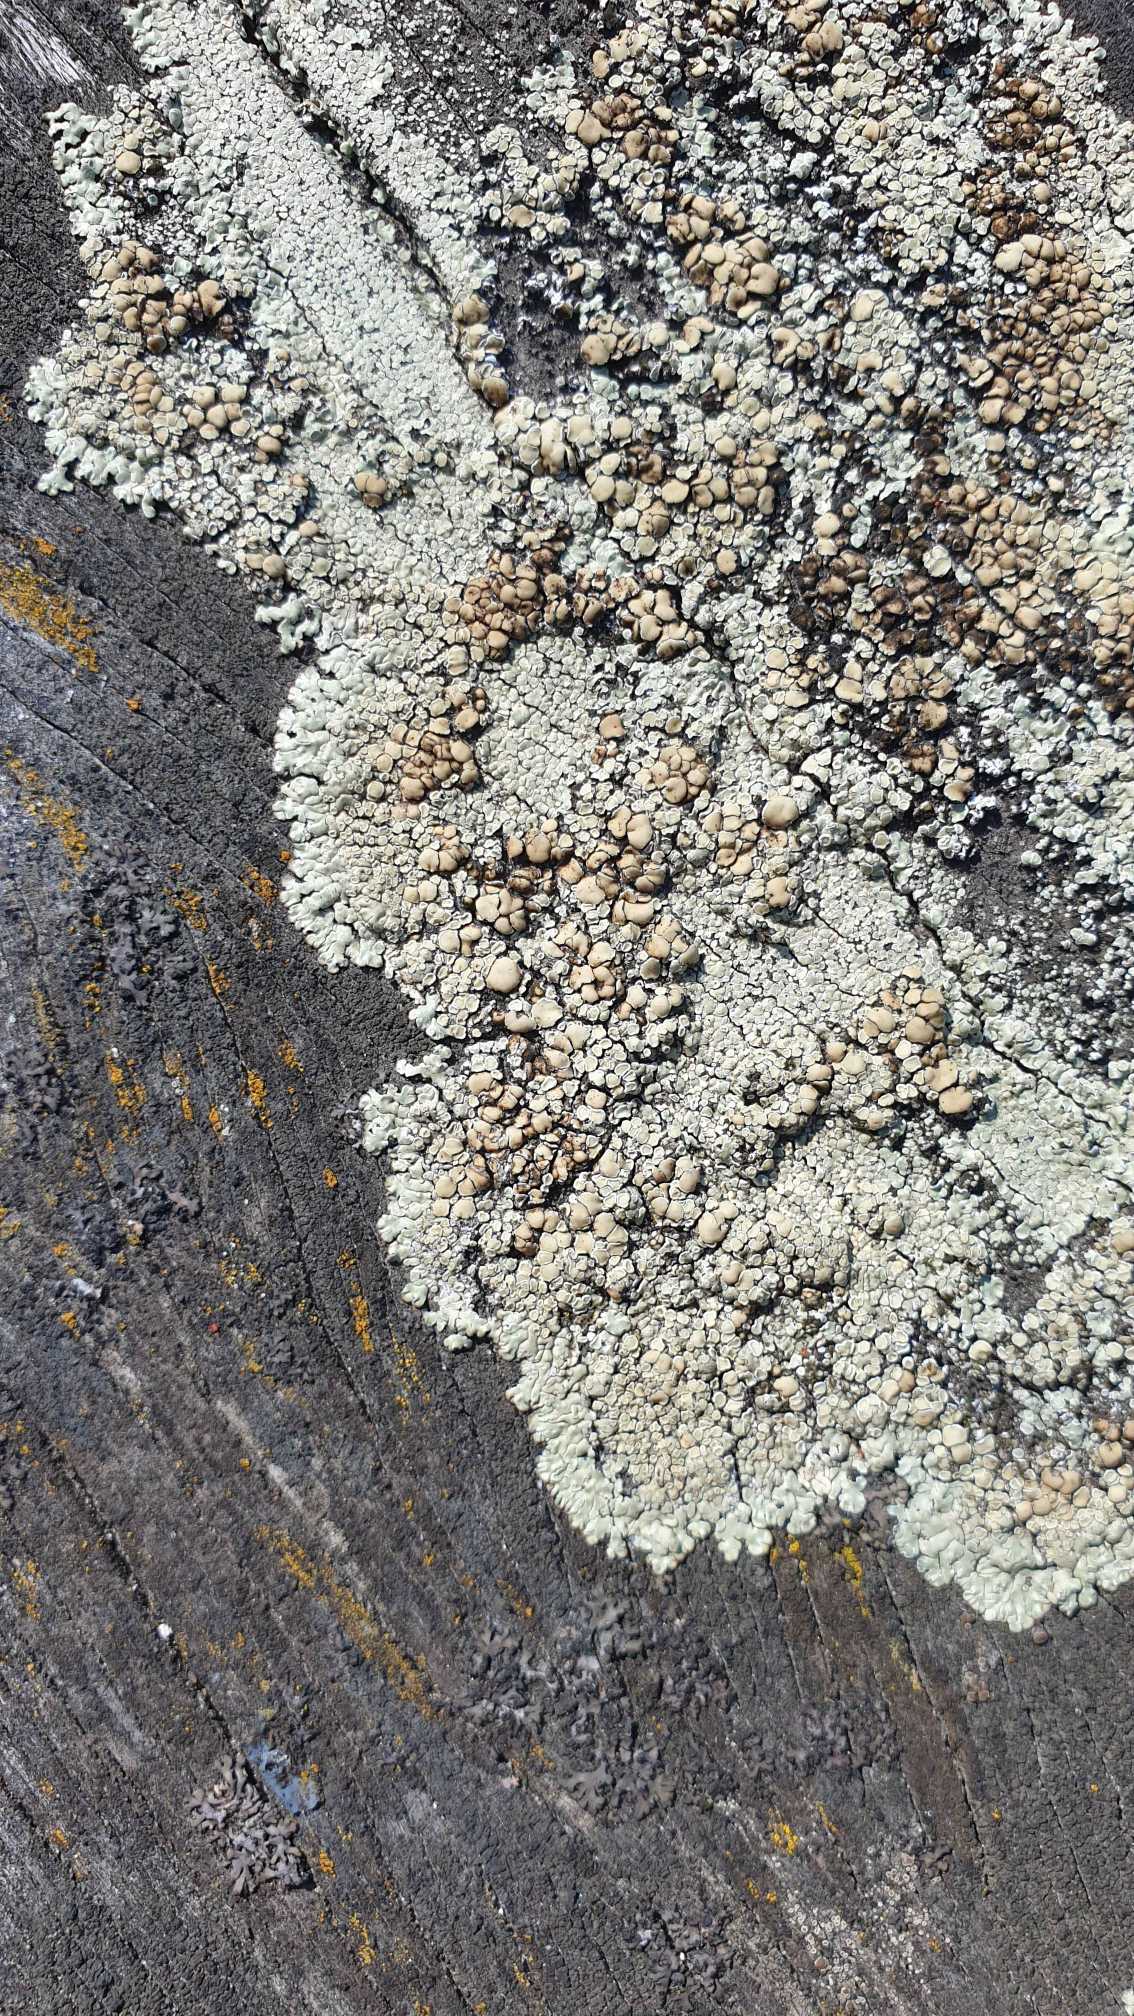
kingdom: Fungi
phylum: Ascomycota
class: Lecanoromycetes
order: Lecanorales
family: Lecanoraceae
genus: Protoparmeliopsis
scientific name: Protoparmeliopsis muralis
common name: Randfliget kantskivelav
